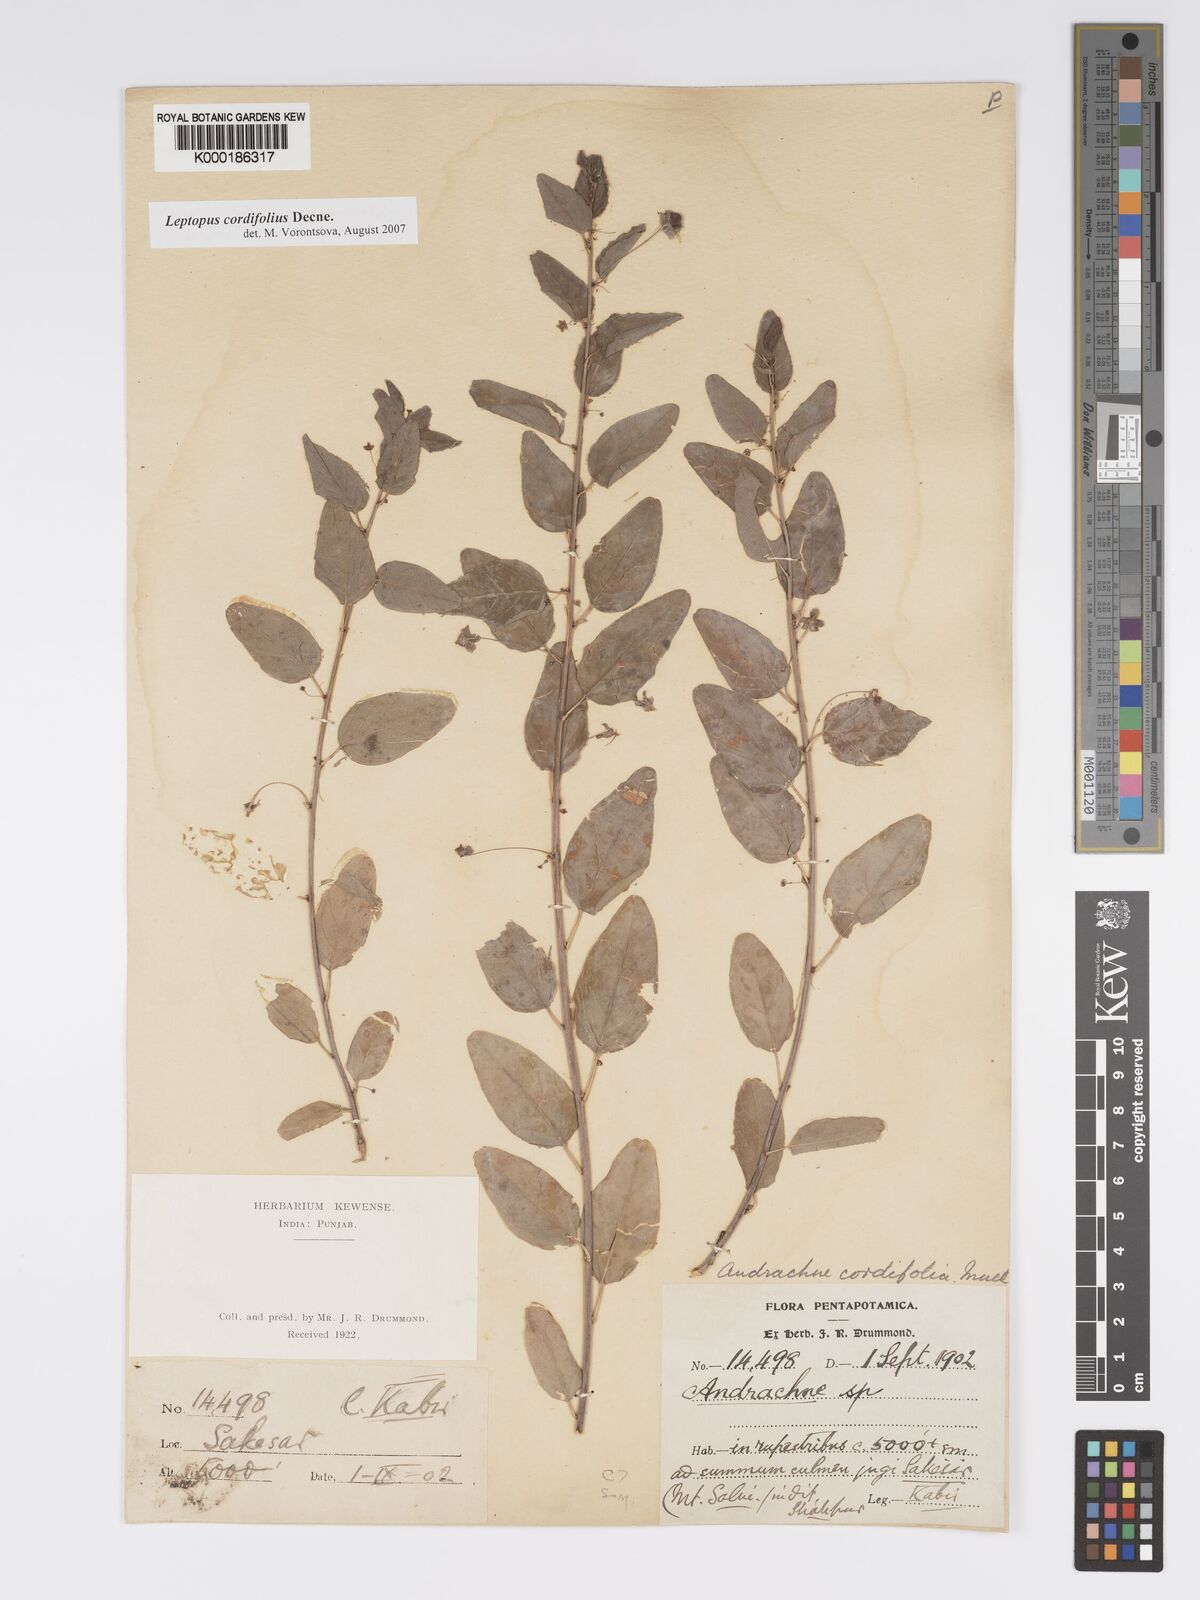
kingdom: Plantae
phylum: Tracheophyta
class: Magnoliopsida
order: Malpighiales
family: Phyllanthaceae
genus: Leptopus
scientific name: Leptopus cordifolius
